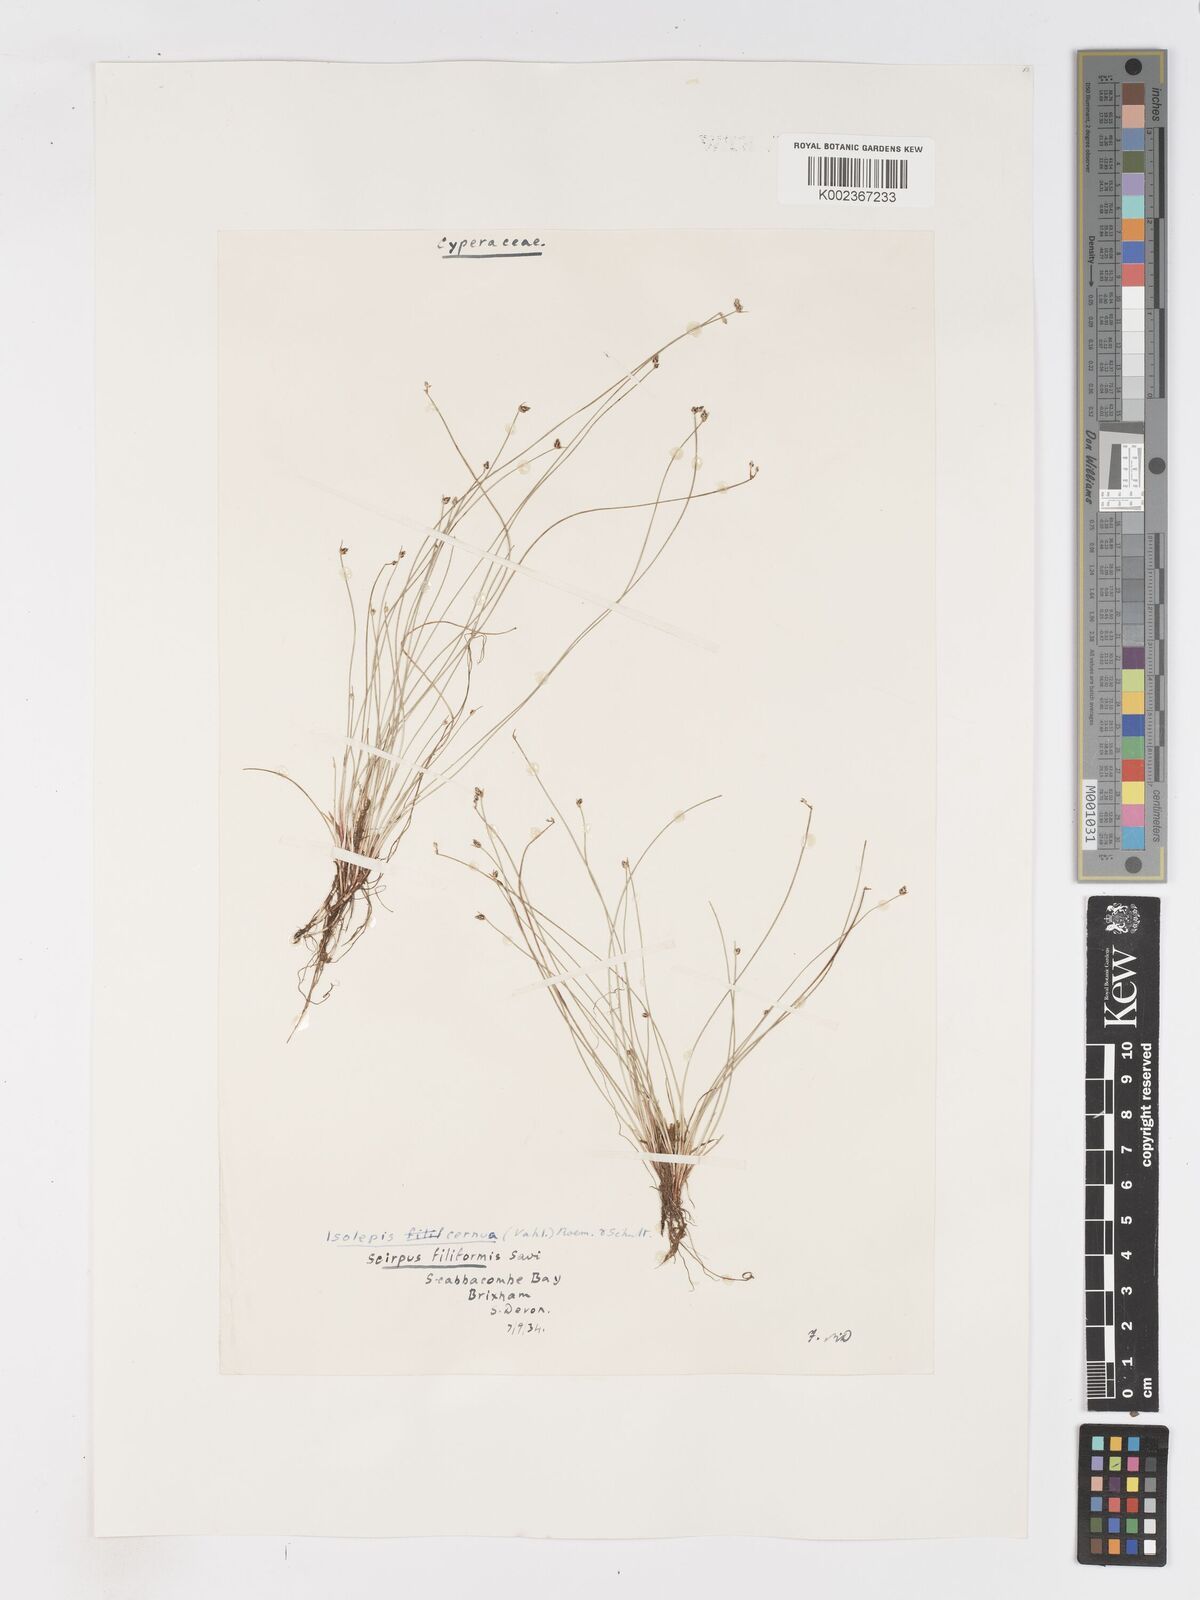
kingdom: Plantae
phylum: Tracheophyta
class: Liliopsida
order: Poales
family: Cyperaceae
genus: Isolepis
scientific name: Isolepis cernua
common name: Slender club-rush
